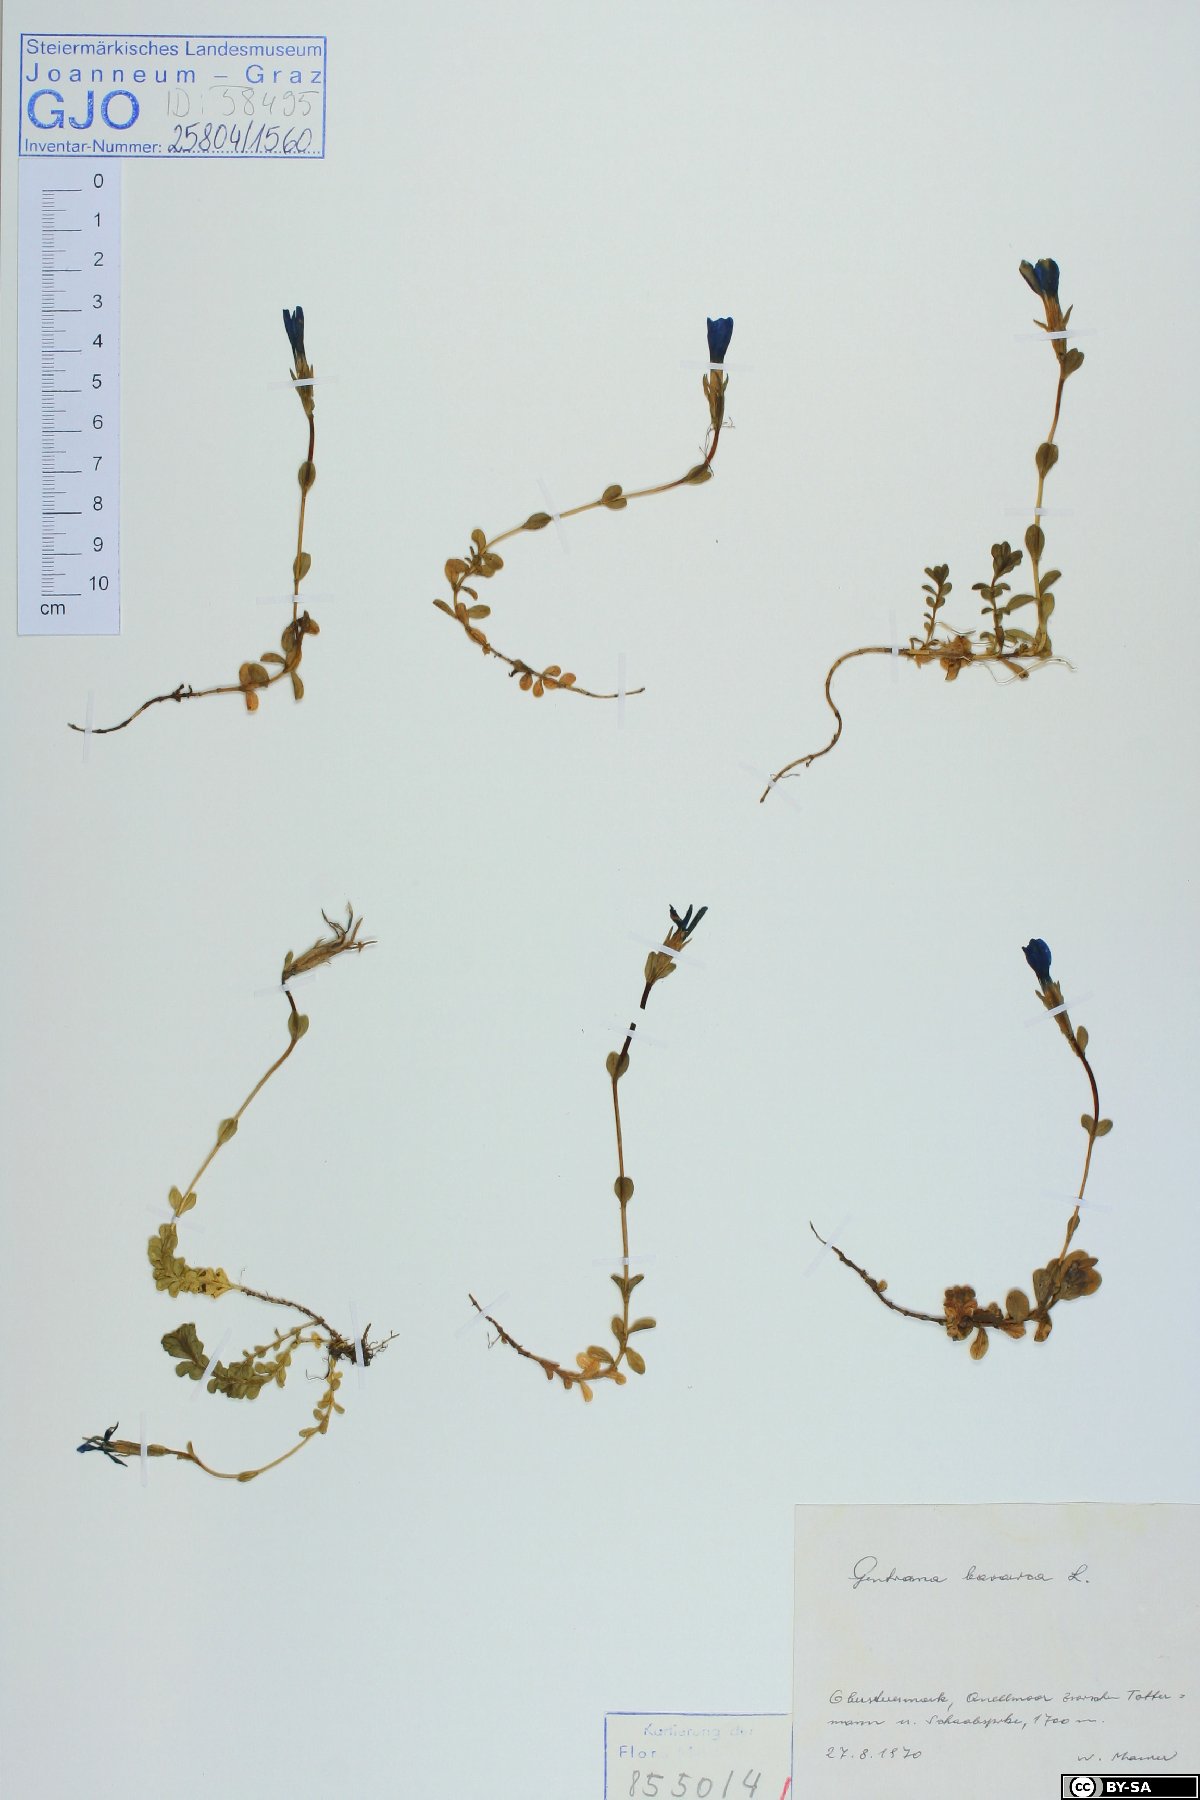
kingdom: Plantae
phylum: Tracheophyta
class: Magnoliopsida
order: Gentianales
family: Gentianaceae
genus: Gentiana
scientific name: Gentiana bavarica
